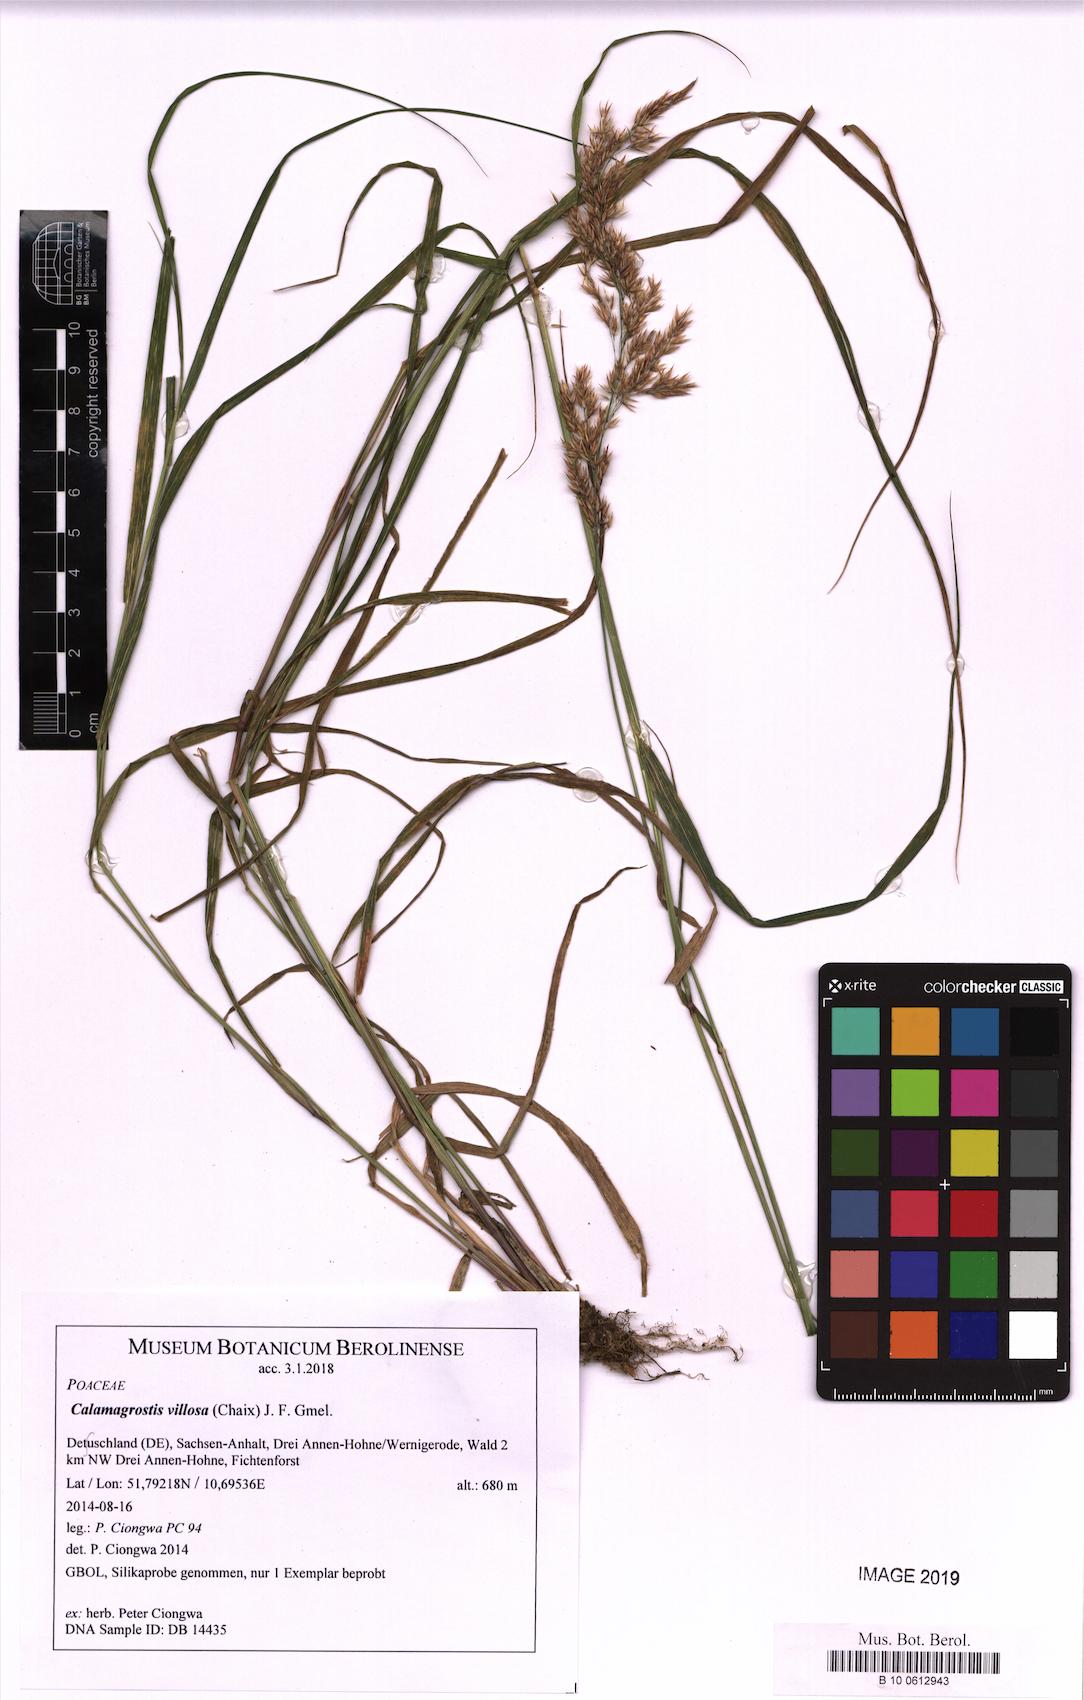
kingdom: Plantae
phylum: Tracheophyta
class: Liliopsida
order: Poales
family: Poaceae
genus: Calamagrostis
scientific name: Calamagrostis villosa
